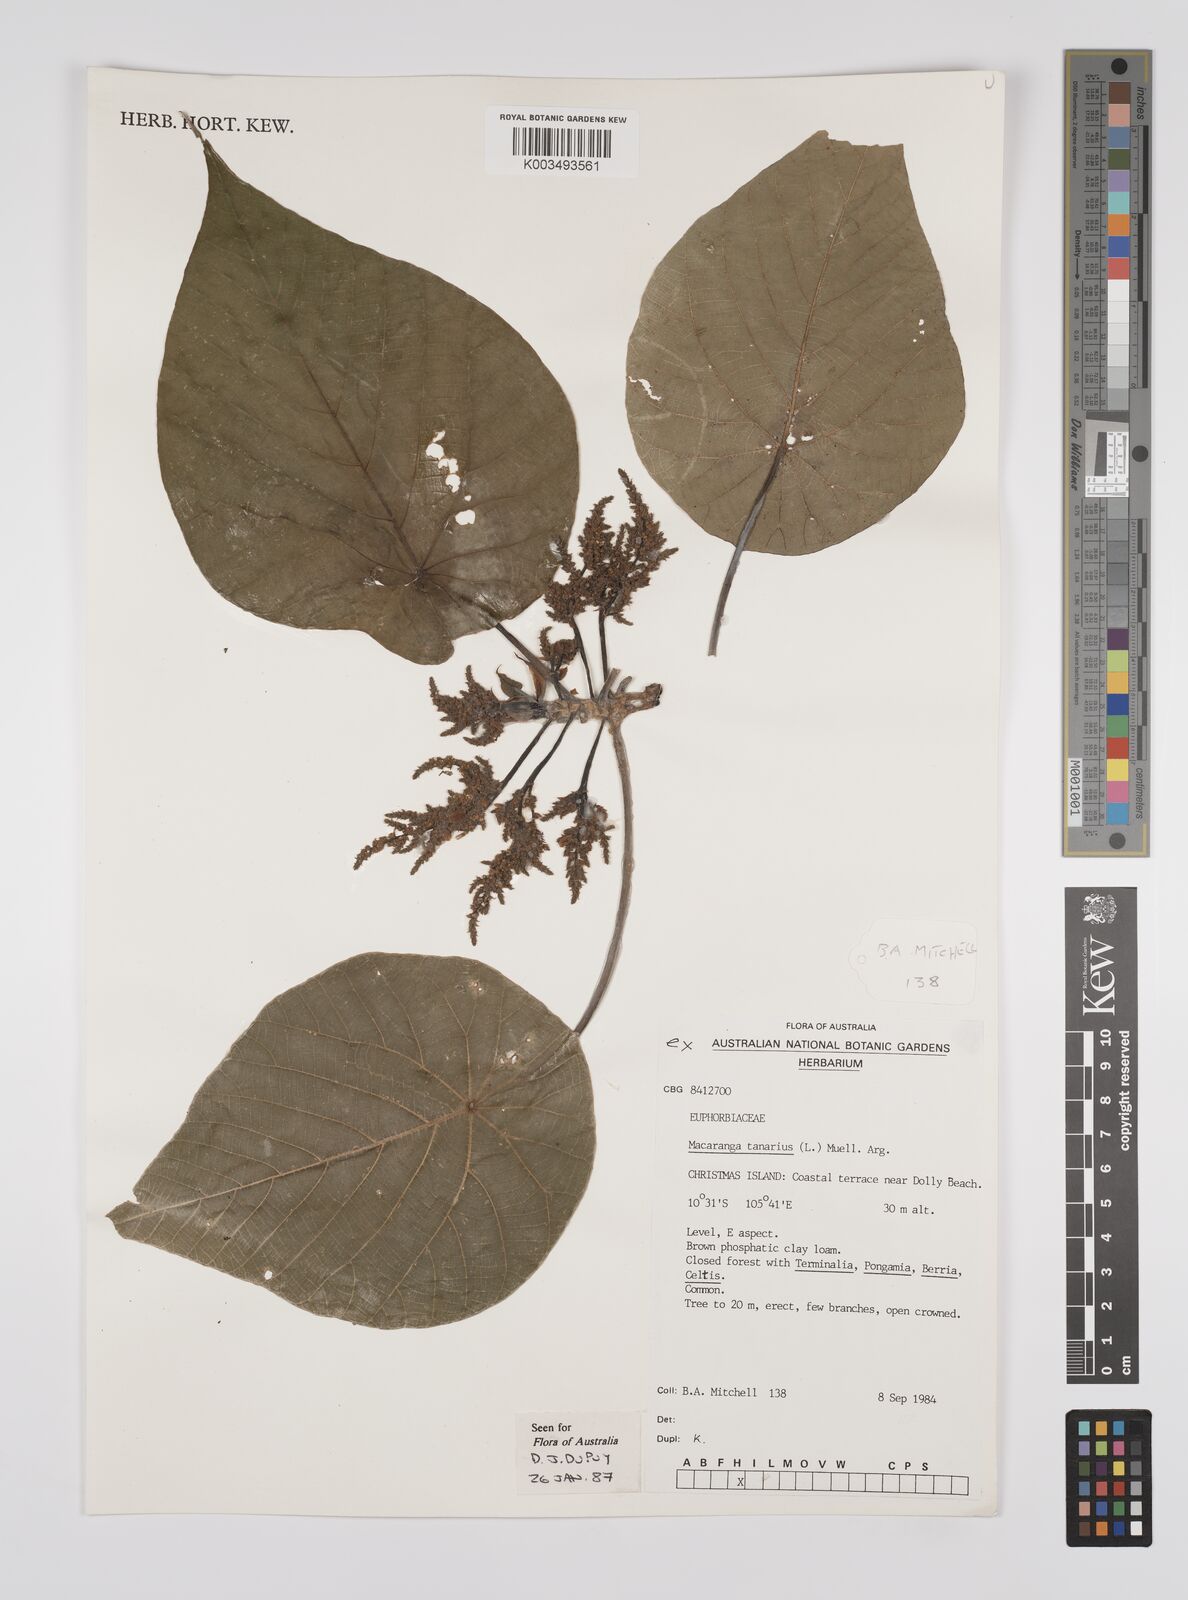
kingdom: Plantae
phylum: Tracheophyta
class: Magnoliopsida
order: Malpighiales
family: Euphorbiaceae
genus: Macaranga
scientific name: Macaranga tanarius
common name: Parasol leaf tree
